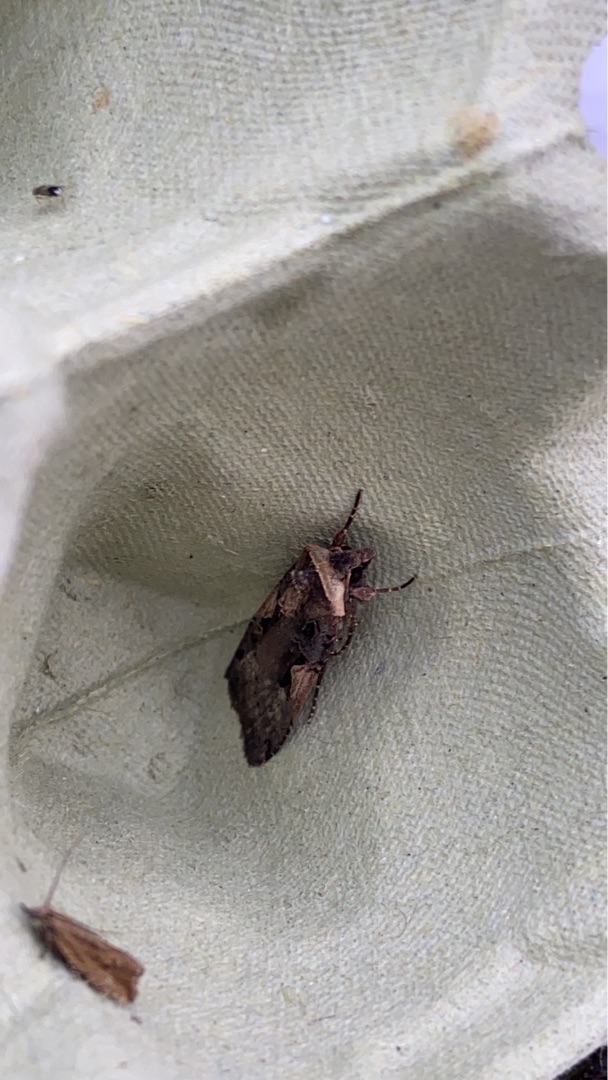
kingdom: Animalia
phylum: Arthropoda
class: Insecta
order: Lepidoptera
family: Noctuidae
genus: Xestia
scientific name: Xestia c-nigrum
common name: Det sorte c
